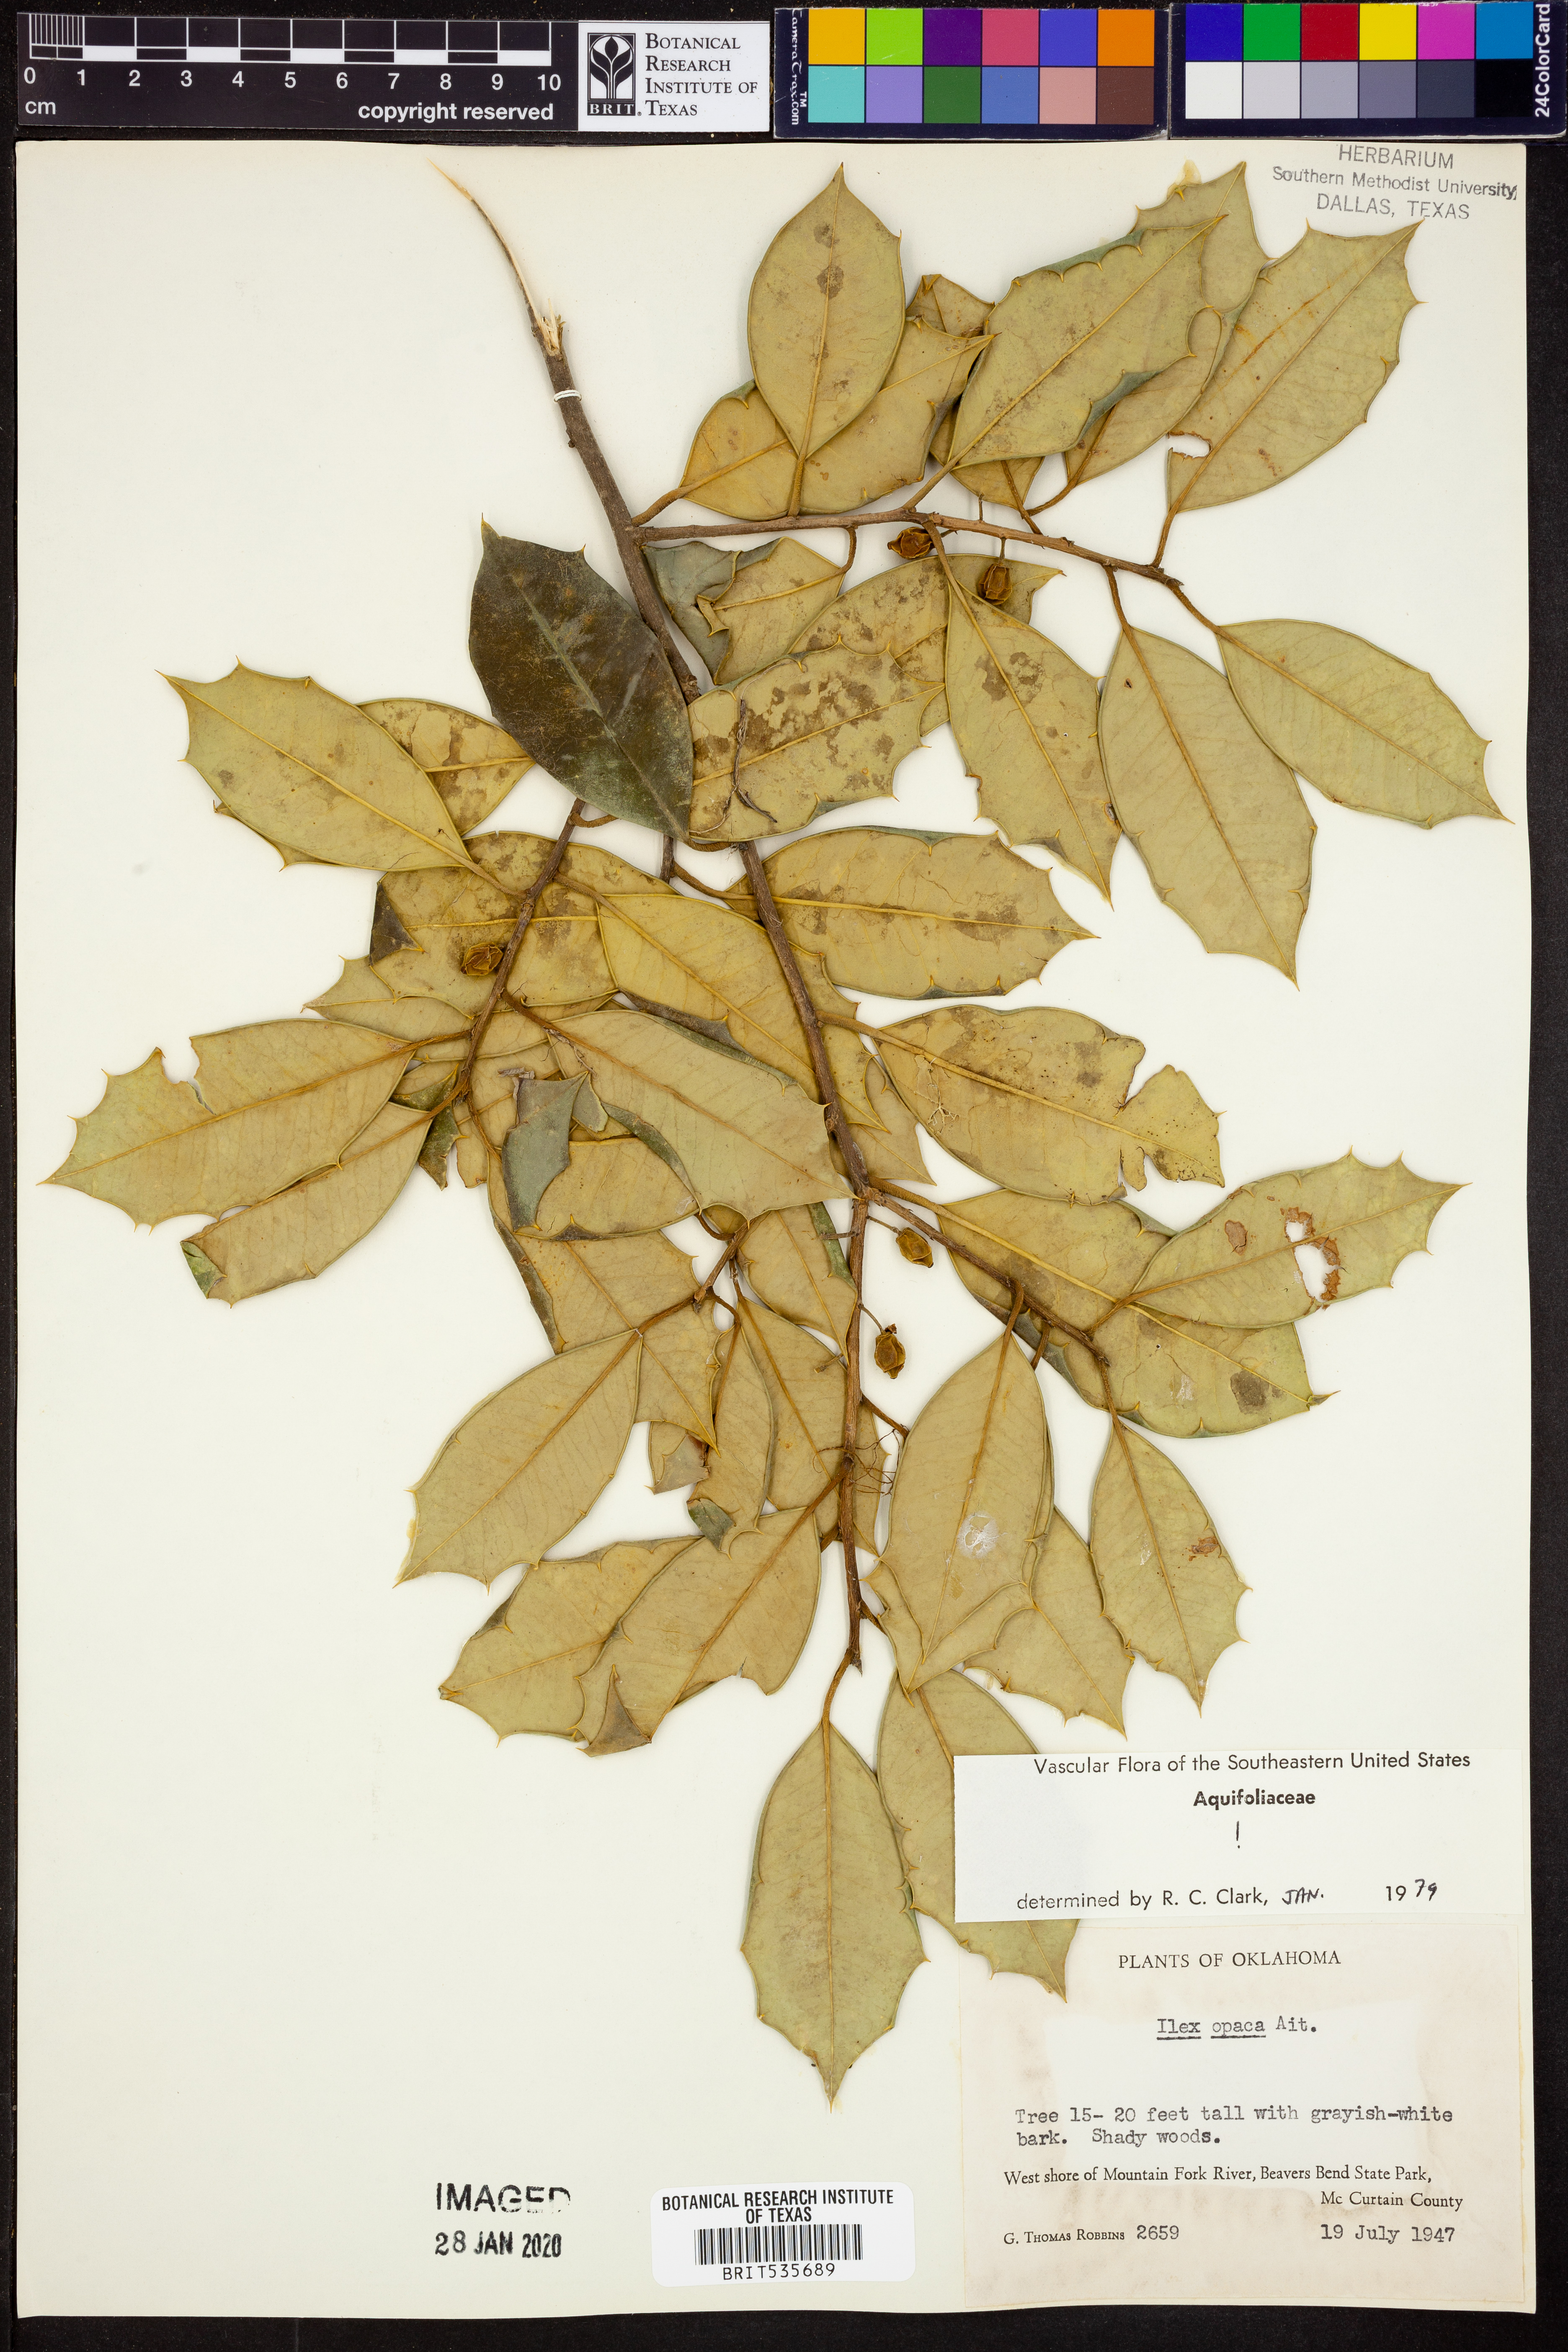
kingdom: Plantae
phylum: Tracheophyta
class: Magnoliopsida
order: Aquifoliales
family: Aquifoliaceae
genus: Ilex
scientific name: Ilex opaca
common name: American holly
